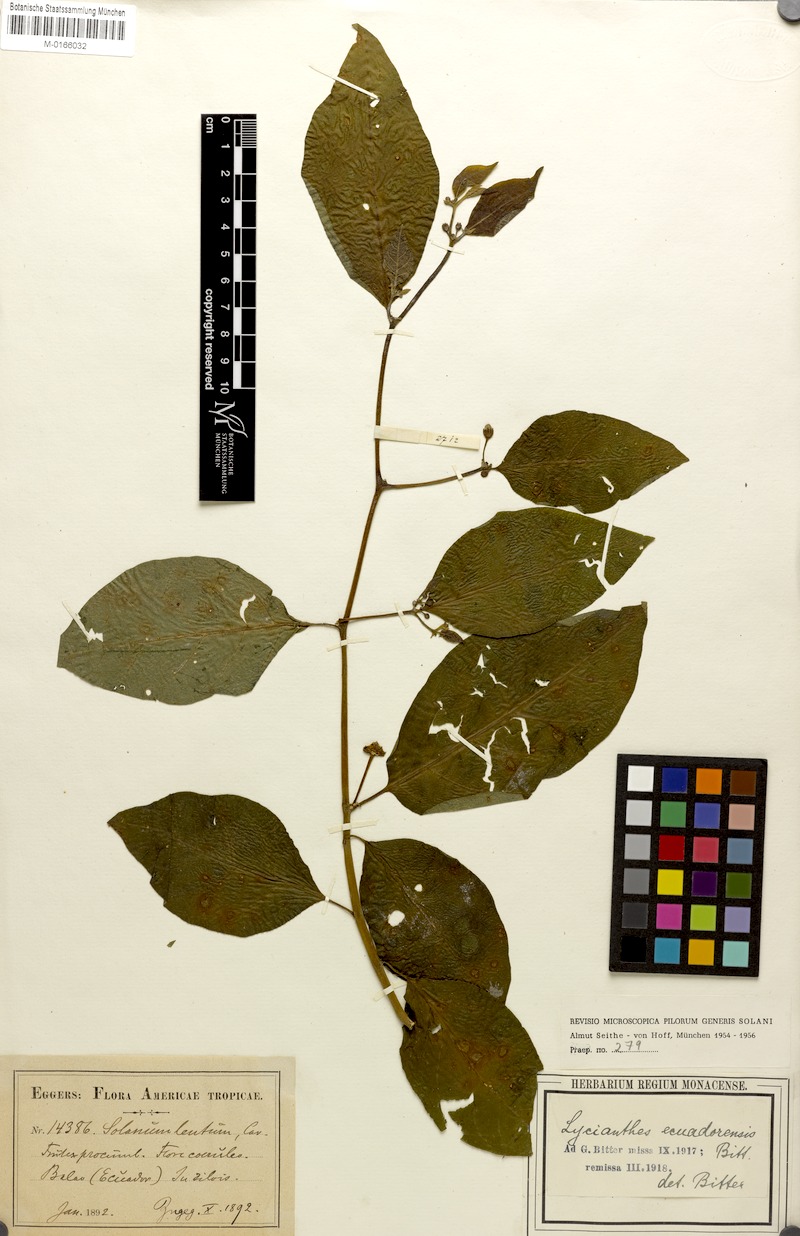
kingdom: Plantae
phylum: Tracheophyta
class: Magnoliopsida
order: Solanales
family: Solanaceae
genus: Lycianthes
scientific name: Lycianthes scandens
